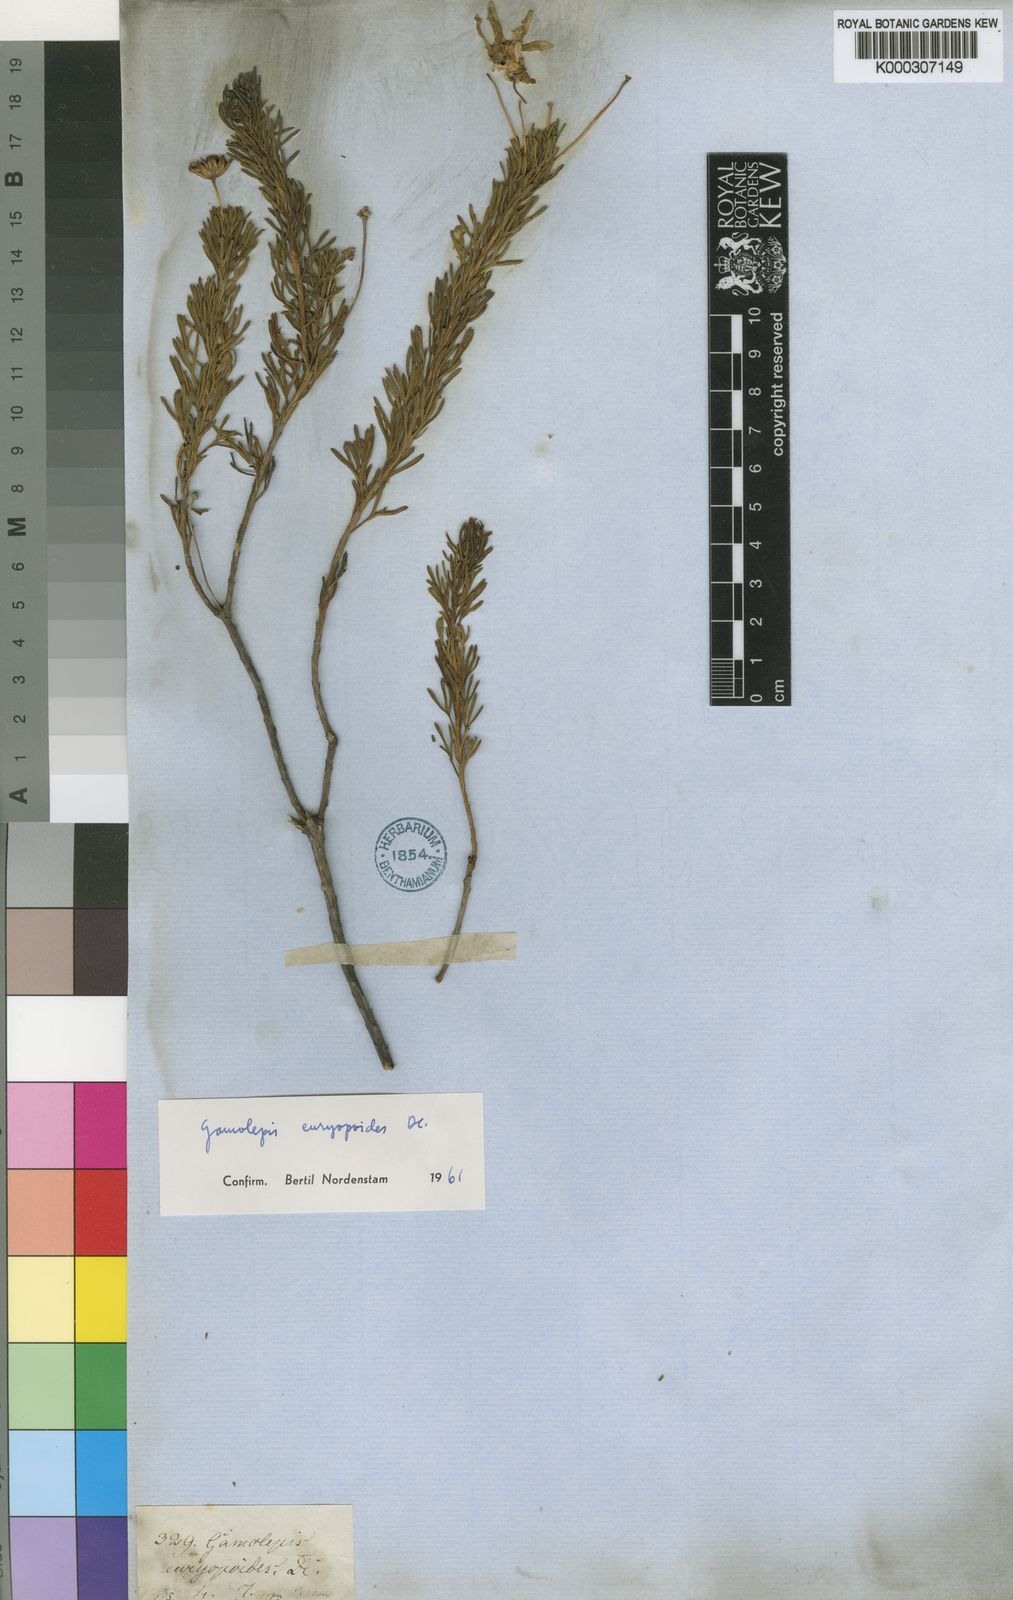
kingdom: Plantae
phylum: Tracheophyta
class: Magnoliopsida
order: Asterales
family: Asteraceae
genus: Euryops
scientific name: Euryops euryopoides
